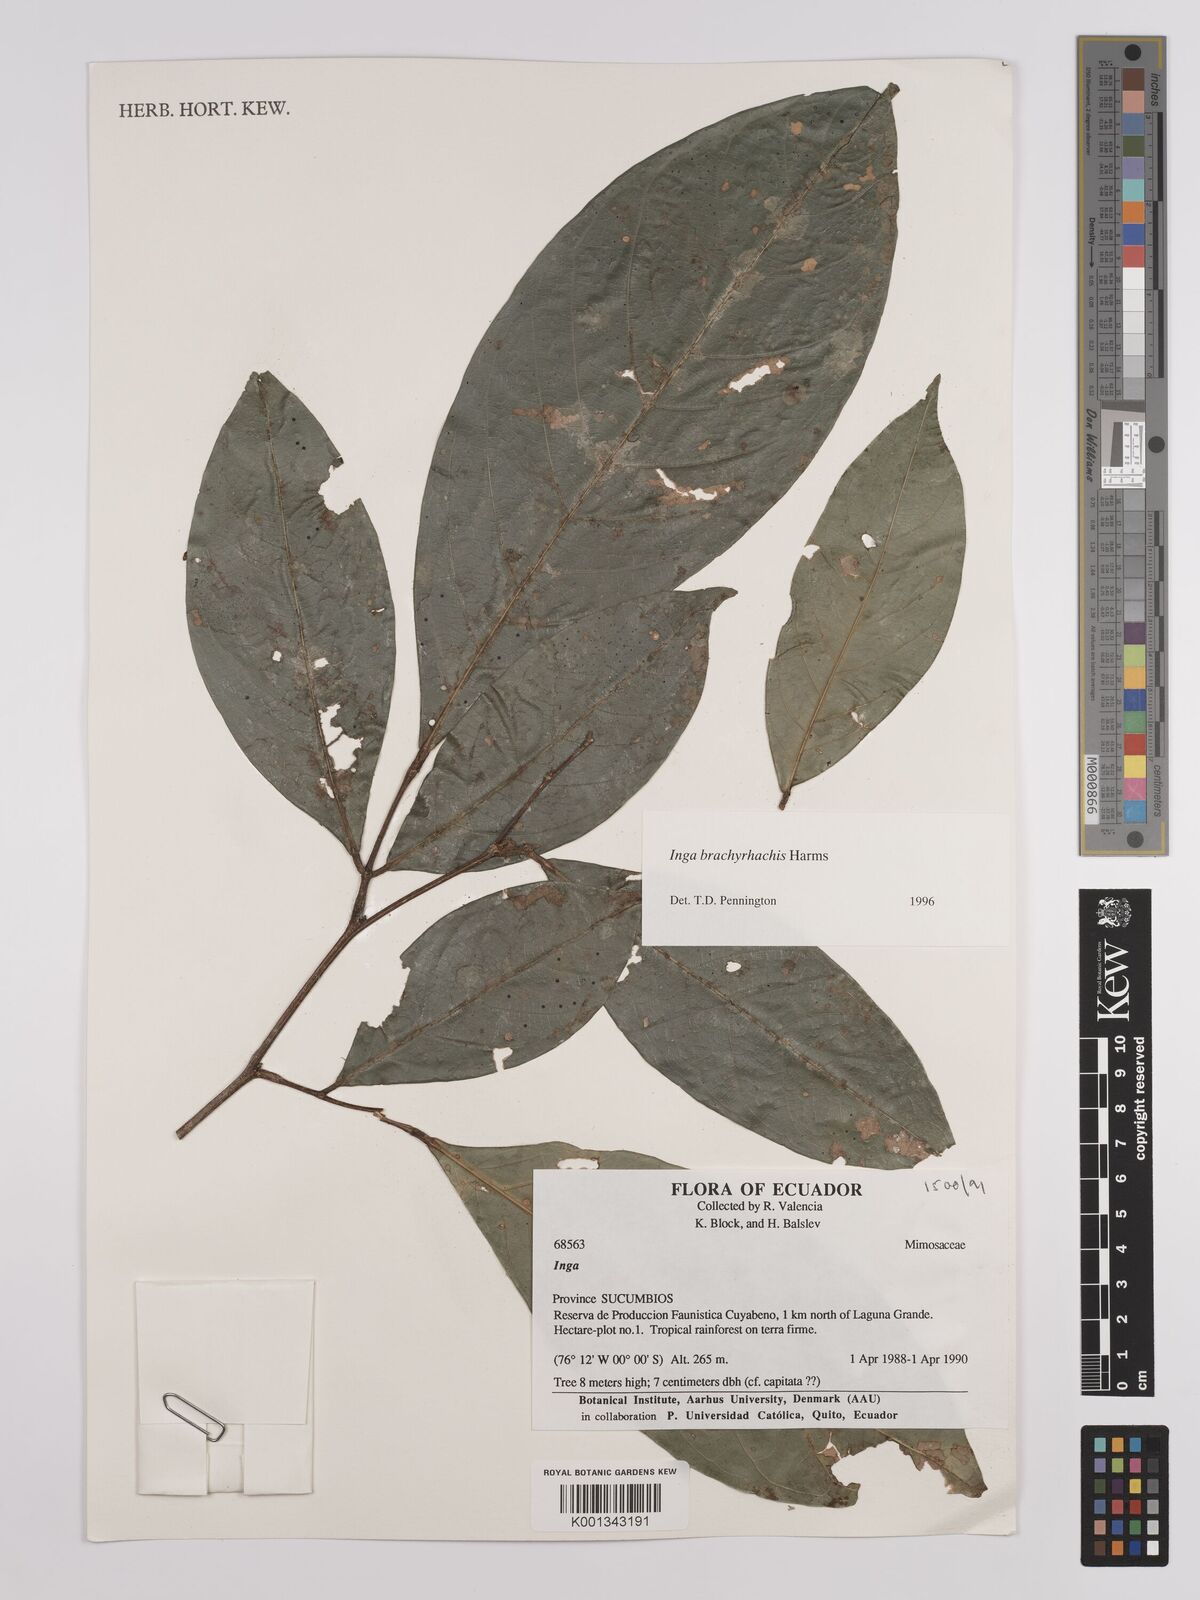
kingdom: Plantae
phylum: Tracheophyta
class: Magnoliopsida
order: Fabales
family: Fabaceae
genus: Inga
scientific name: Inga brachyrhachis
